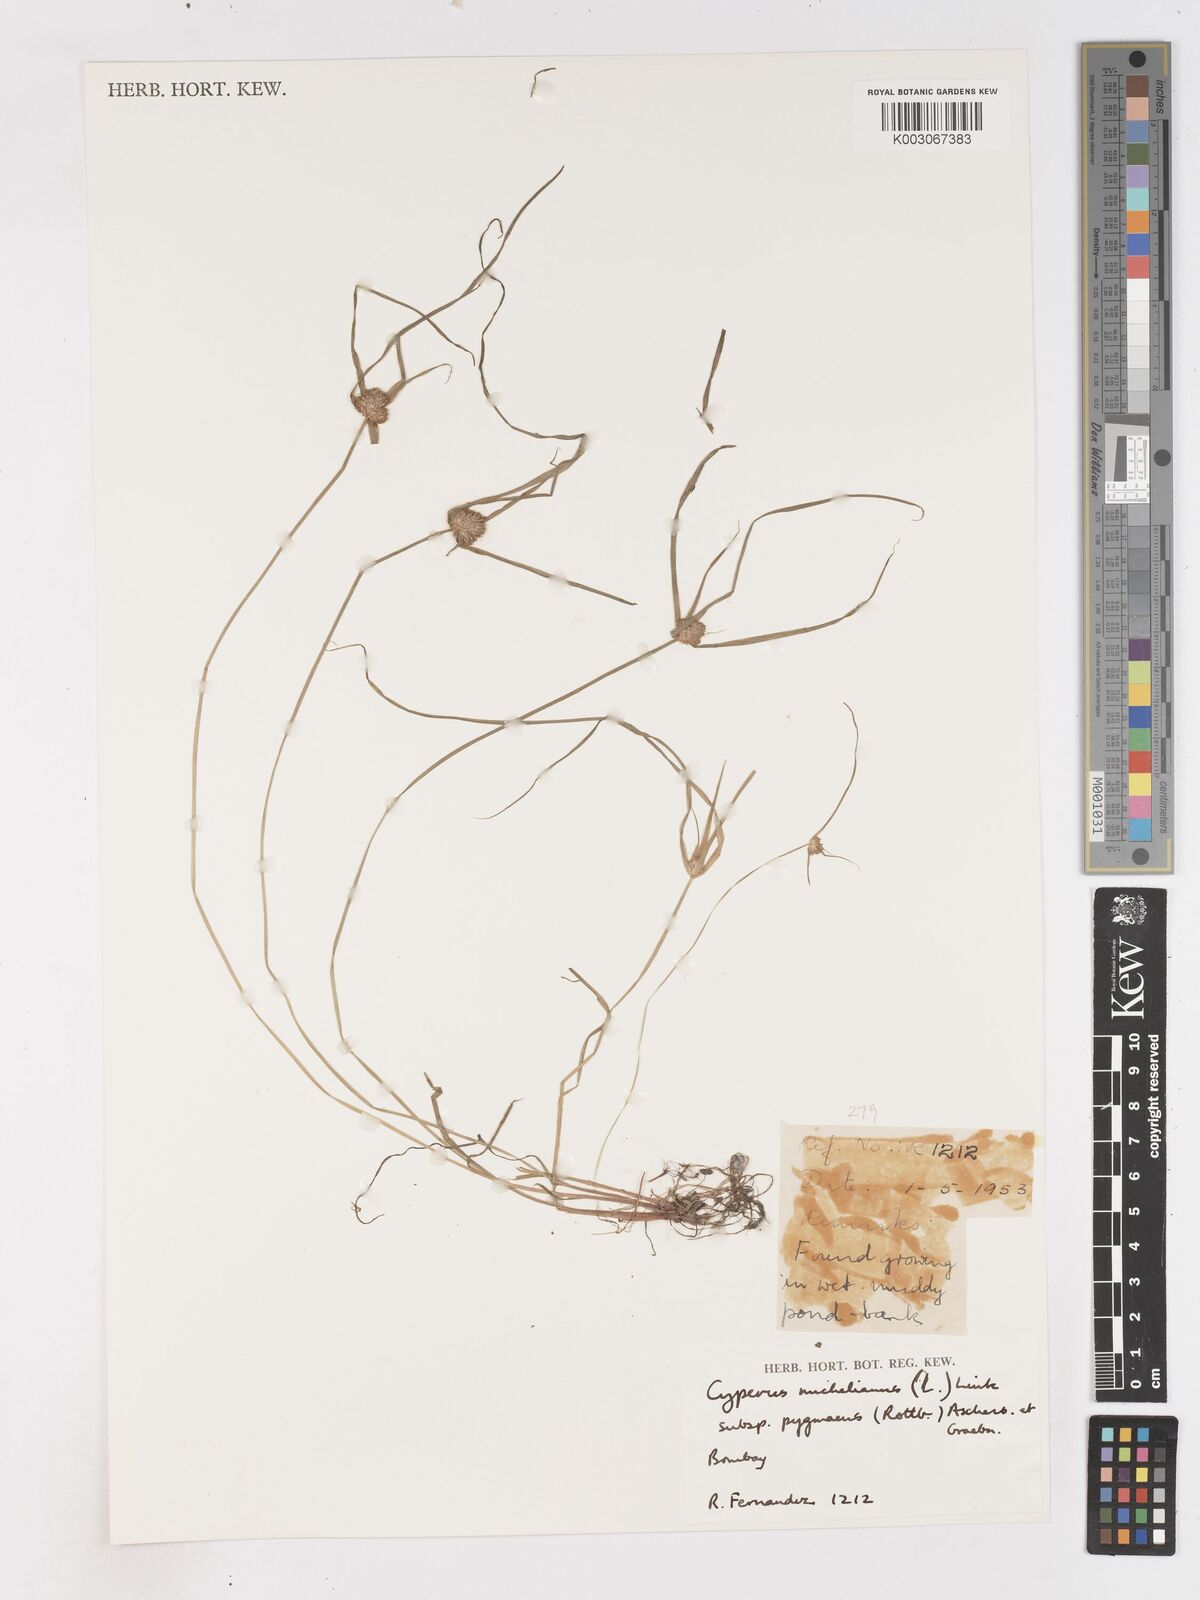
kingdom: Plantae
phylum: Tracheophyta
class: Liliopsida
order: Poales
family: Cyperaceae
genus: Cyperus
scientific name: Cyperus michelianus
